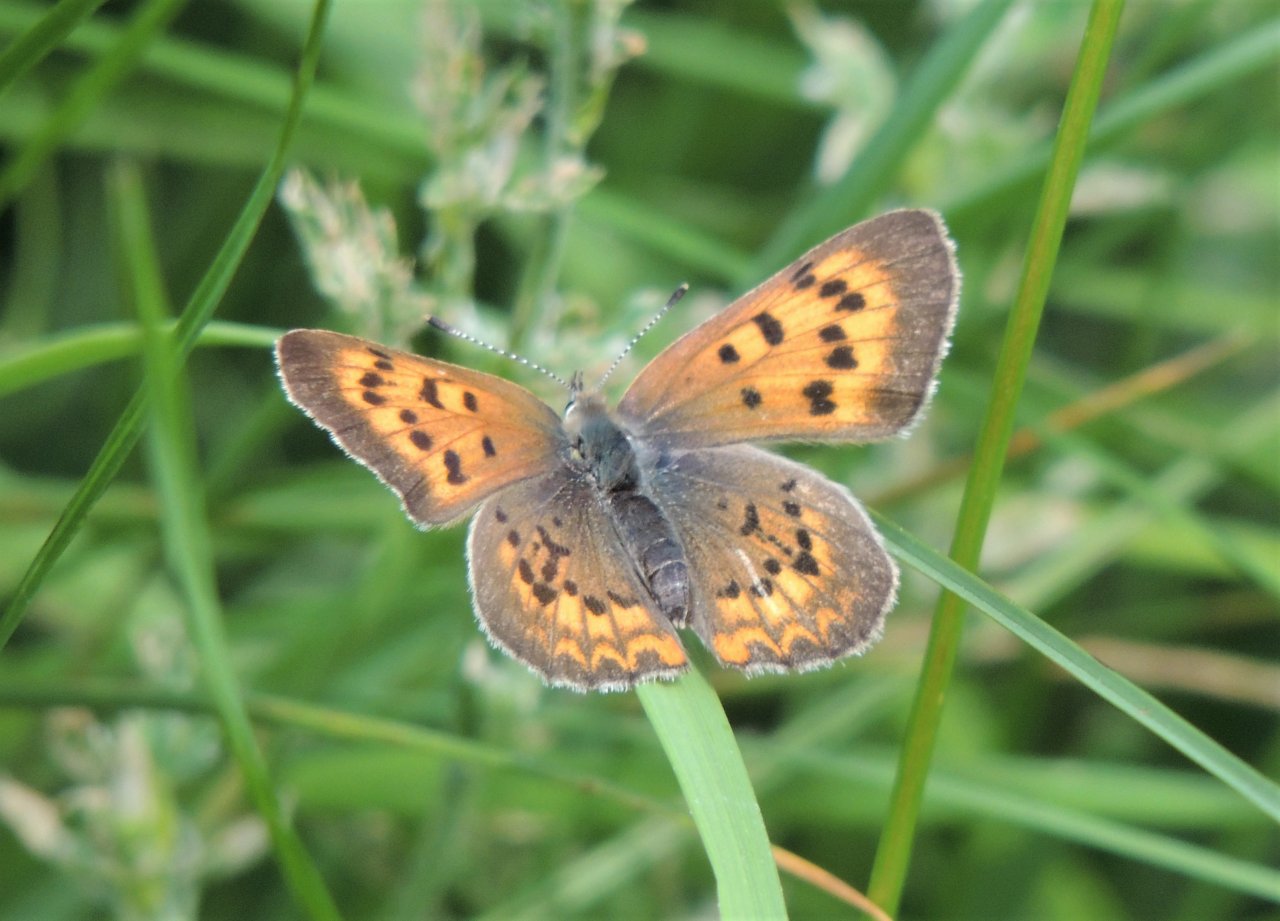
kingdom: Animalia
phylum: Arthropoda
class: Insecta
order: Lepidoptera
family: Sesiidae
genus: Sesia
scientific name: Sesia Lycaena helloides
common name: Purplish Copper
